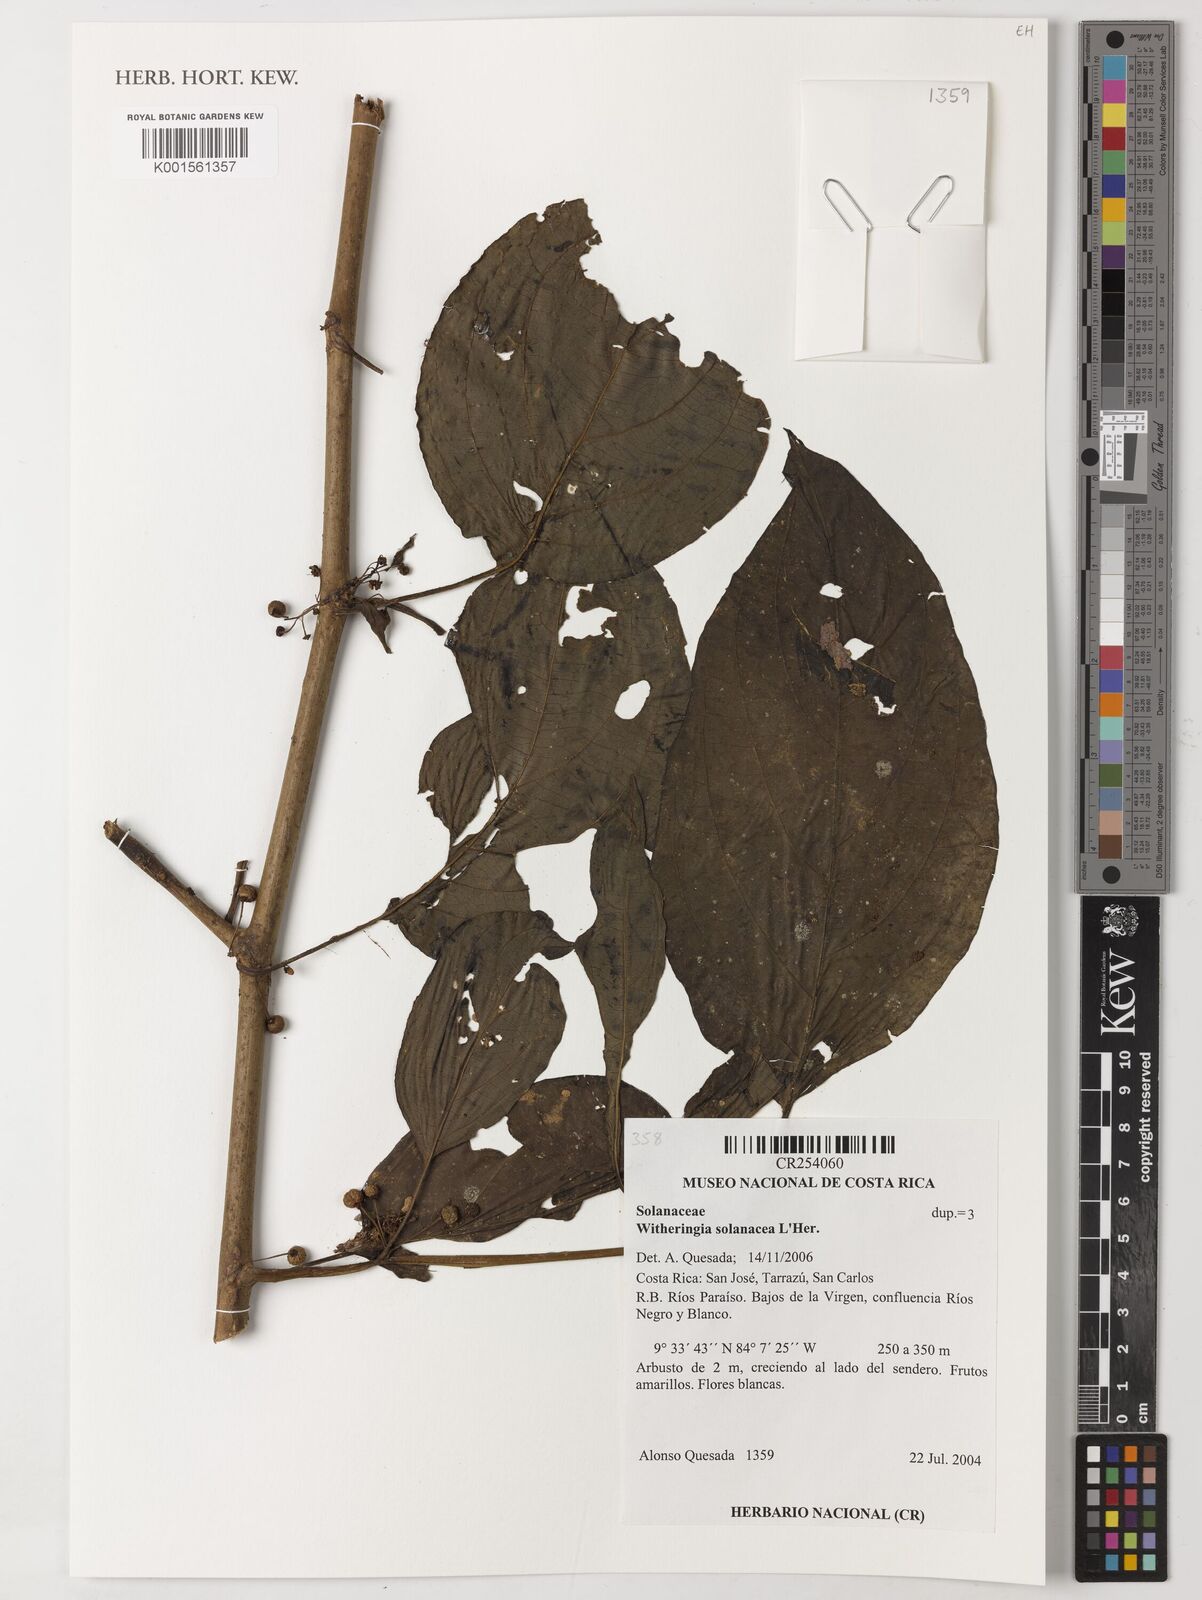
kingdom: Plantae
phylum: Tracheophyta
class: Magnoliopsida
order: Solanales
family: Solanaceae
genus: Witheringia
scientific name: Witheringia
